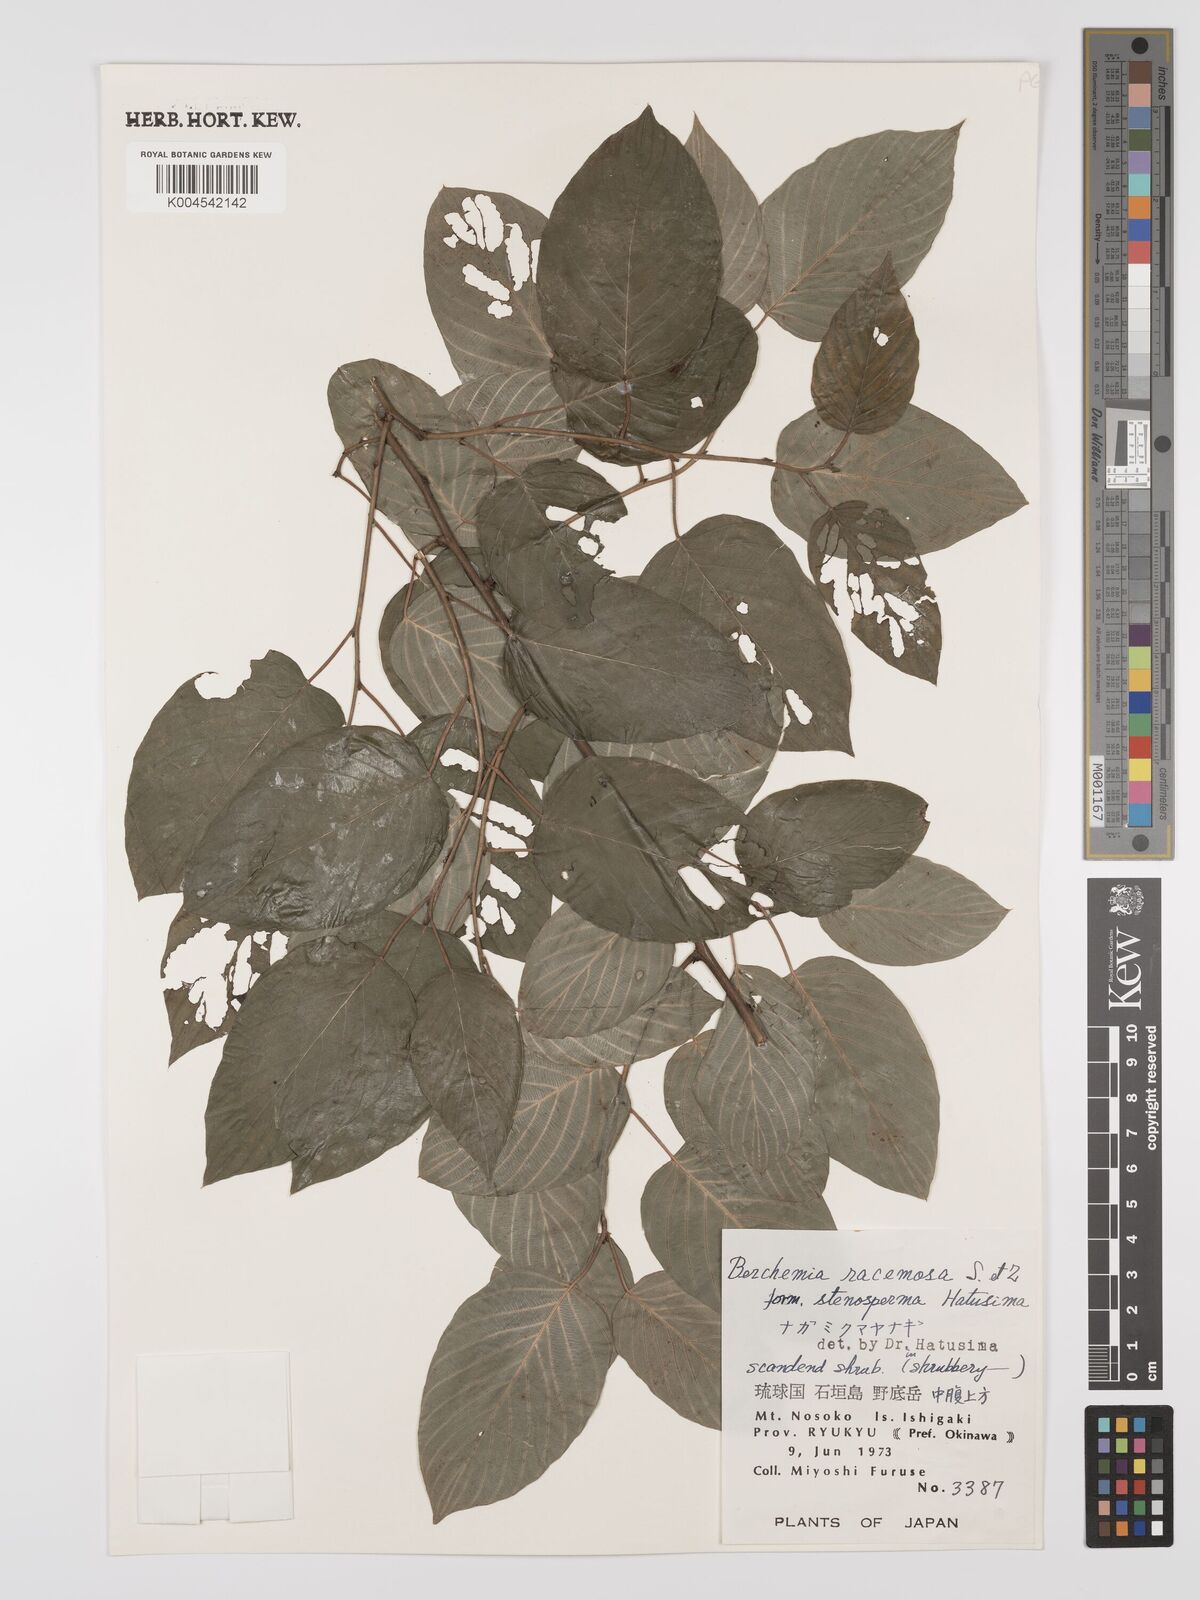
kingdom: Plantae
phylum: Tracheophyta
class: Magnoliopsida
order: Rosales
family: Rhamnaceae
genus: Berchemia
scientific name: Berchemia floribunda
